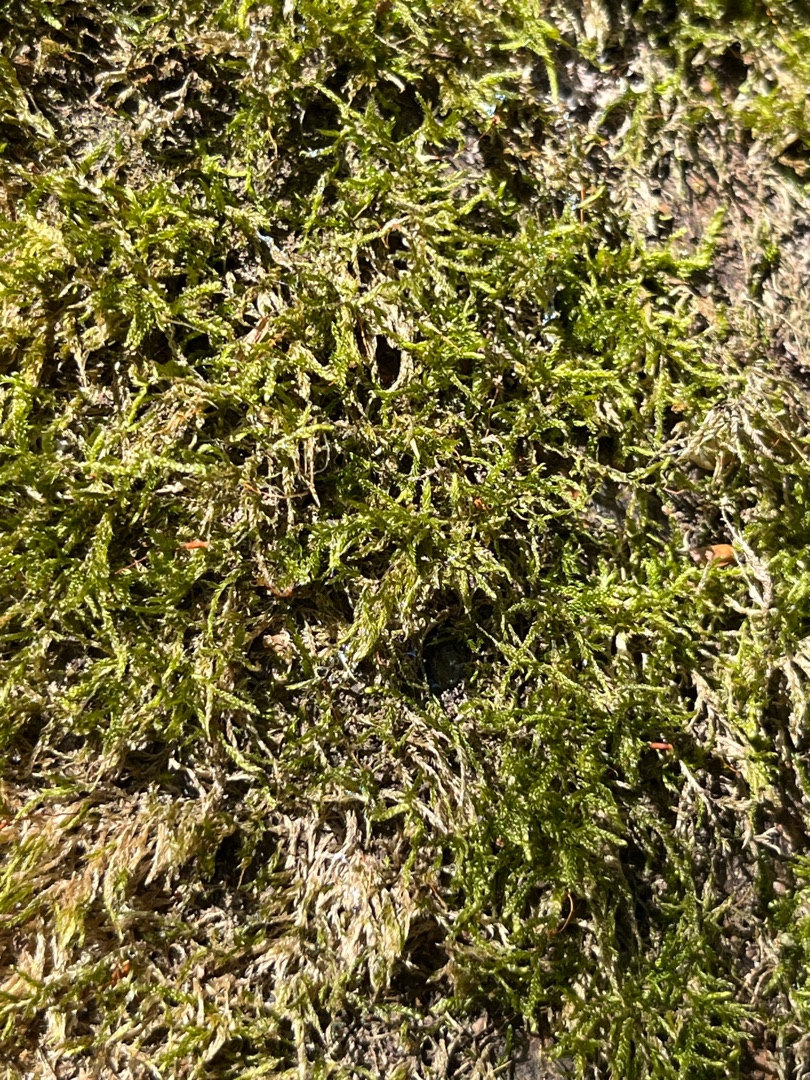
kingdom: Plantae
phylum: Bryophyta
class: Bryopsida
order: Hypnales
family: Hypnaceae
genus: Hypnum
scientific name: Hypnum
